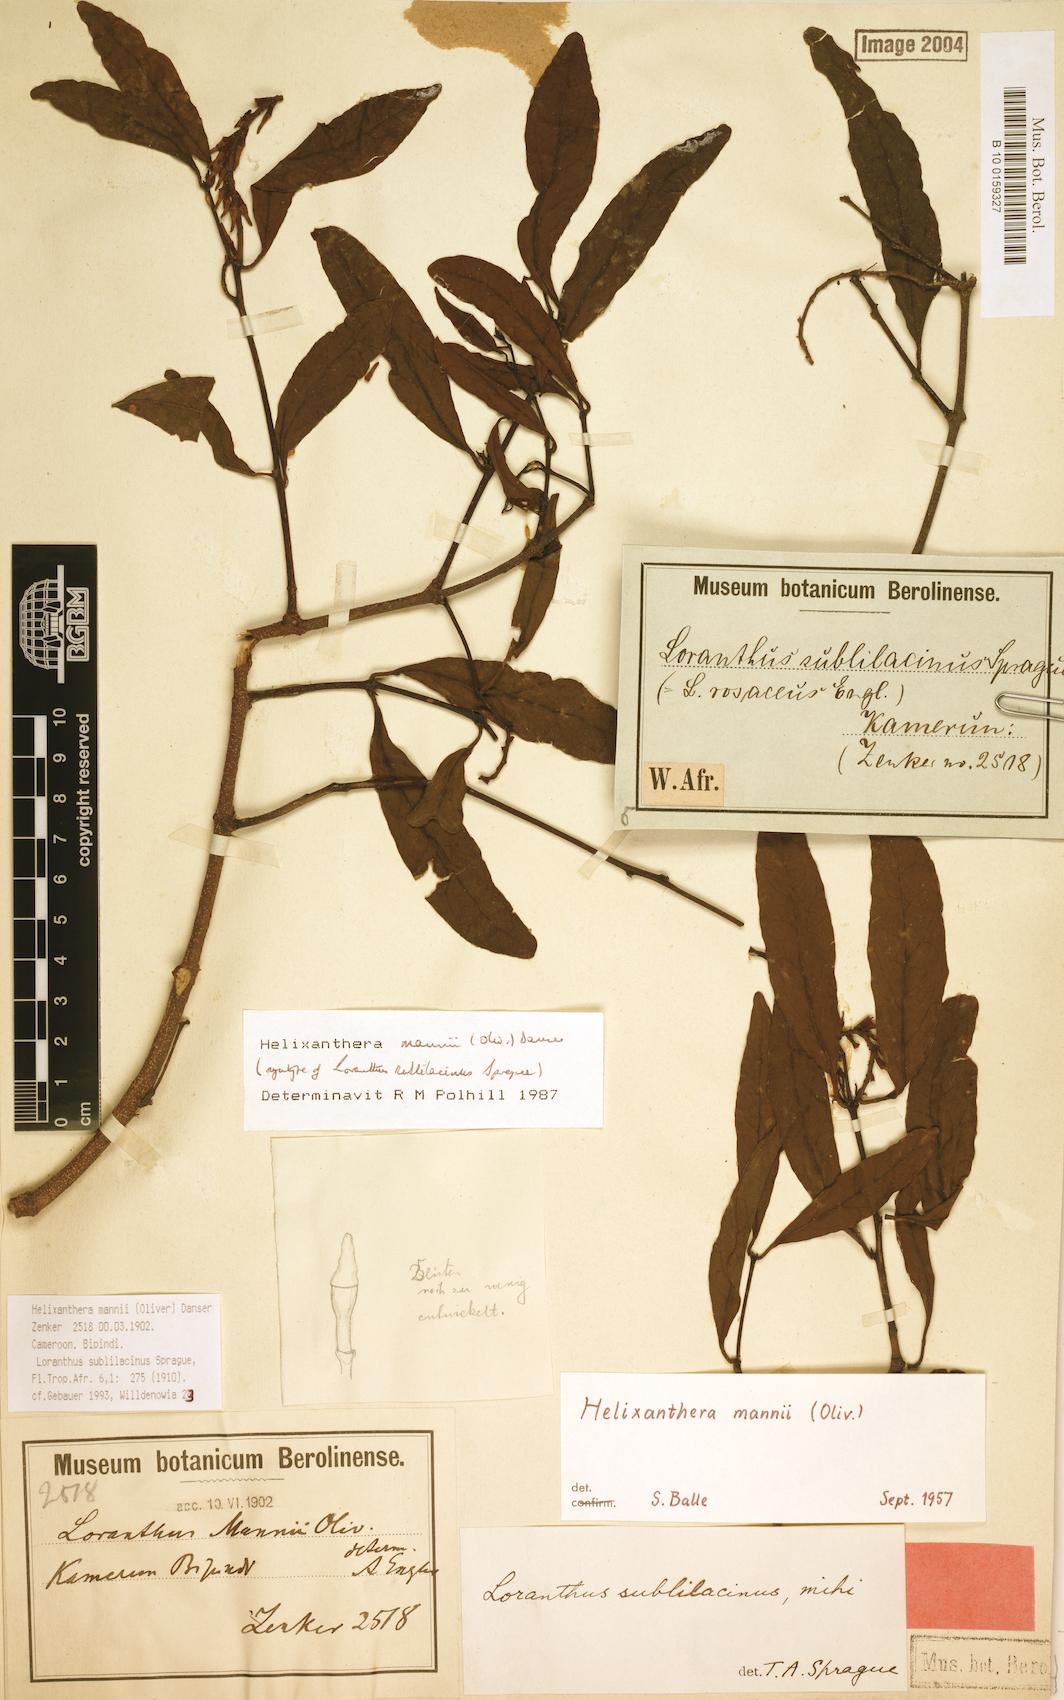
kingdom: Plantae
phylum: Tracheophyta
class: Magnoliopsida
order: Santalales
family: Loranthaceae
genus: Helixanthera
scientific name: Helixanthera mannii
